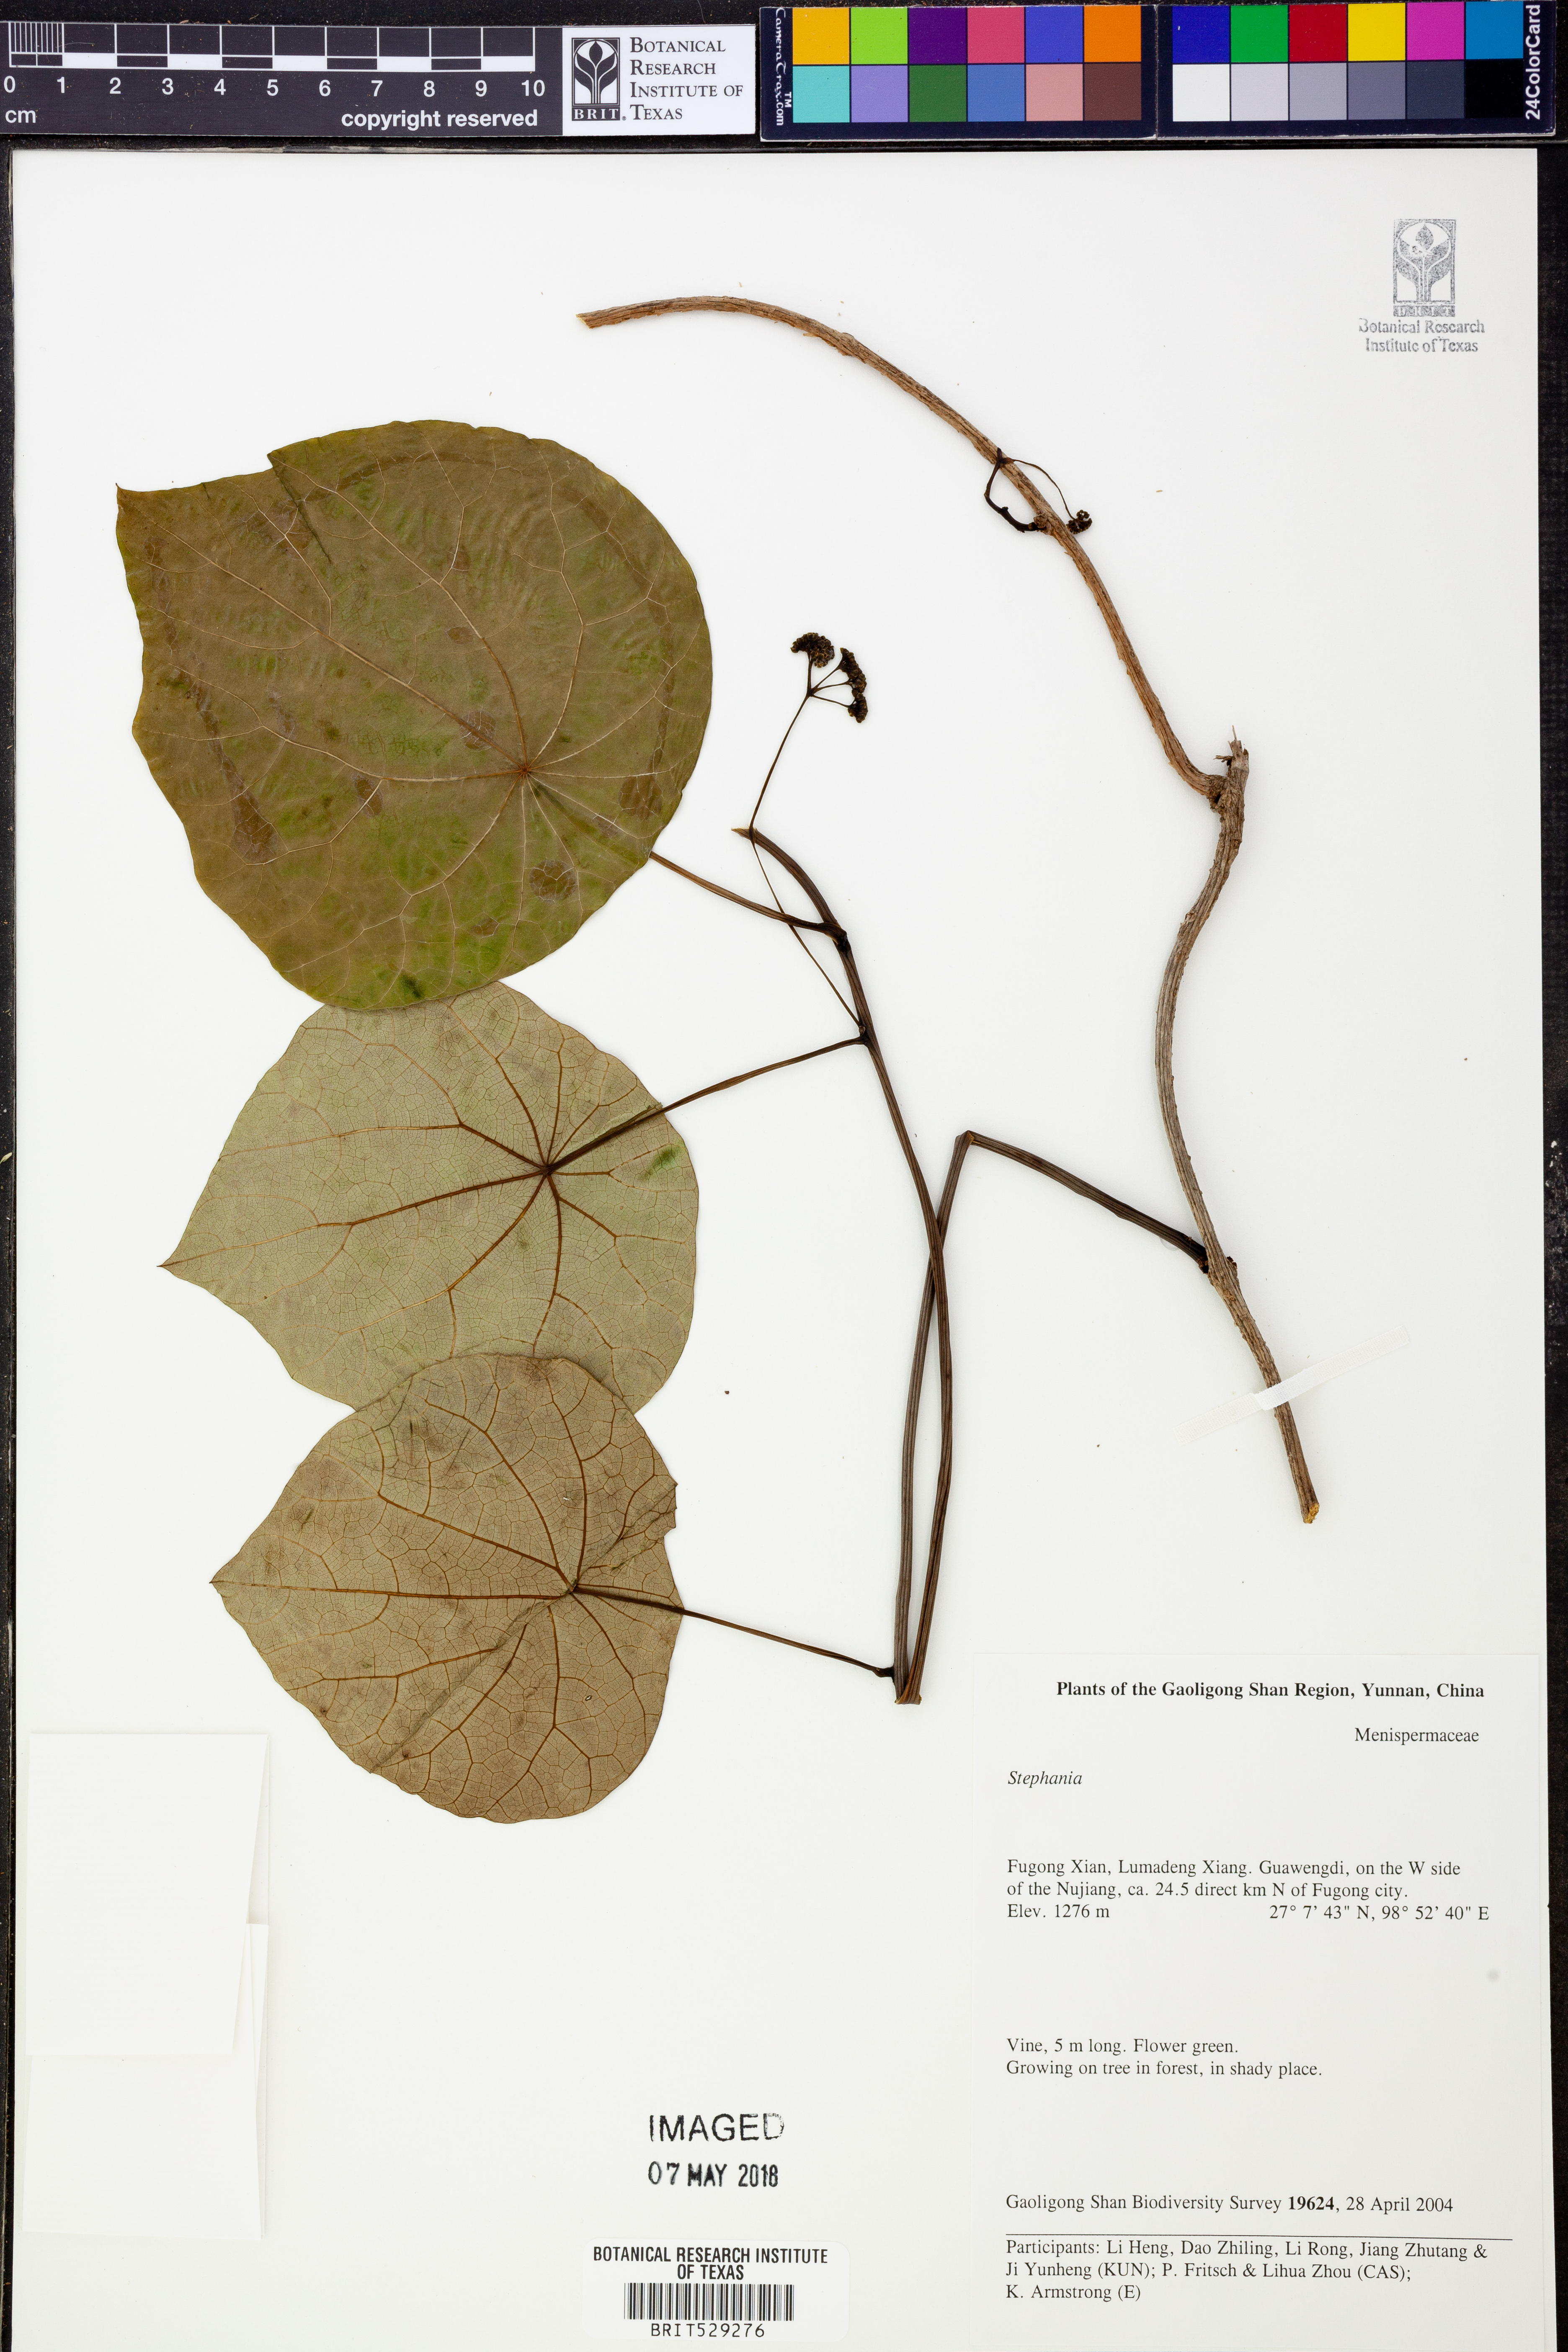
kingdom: Plantae
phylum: Tracheophyta
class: Magnoliopsida
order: Ranunculales
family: Menispermaceae
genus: Stephania
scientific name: Stephania
